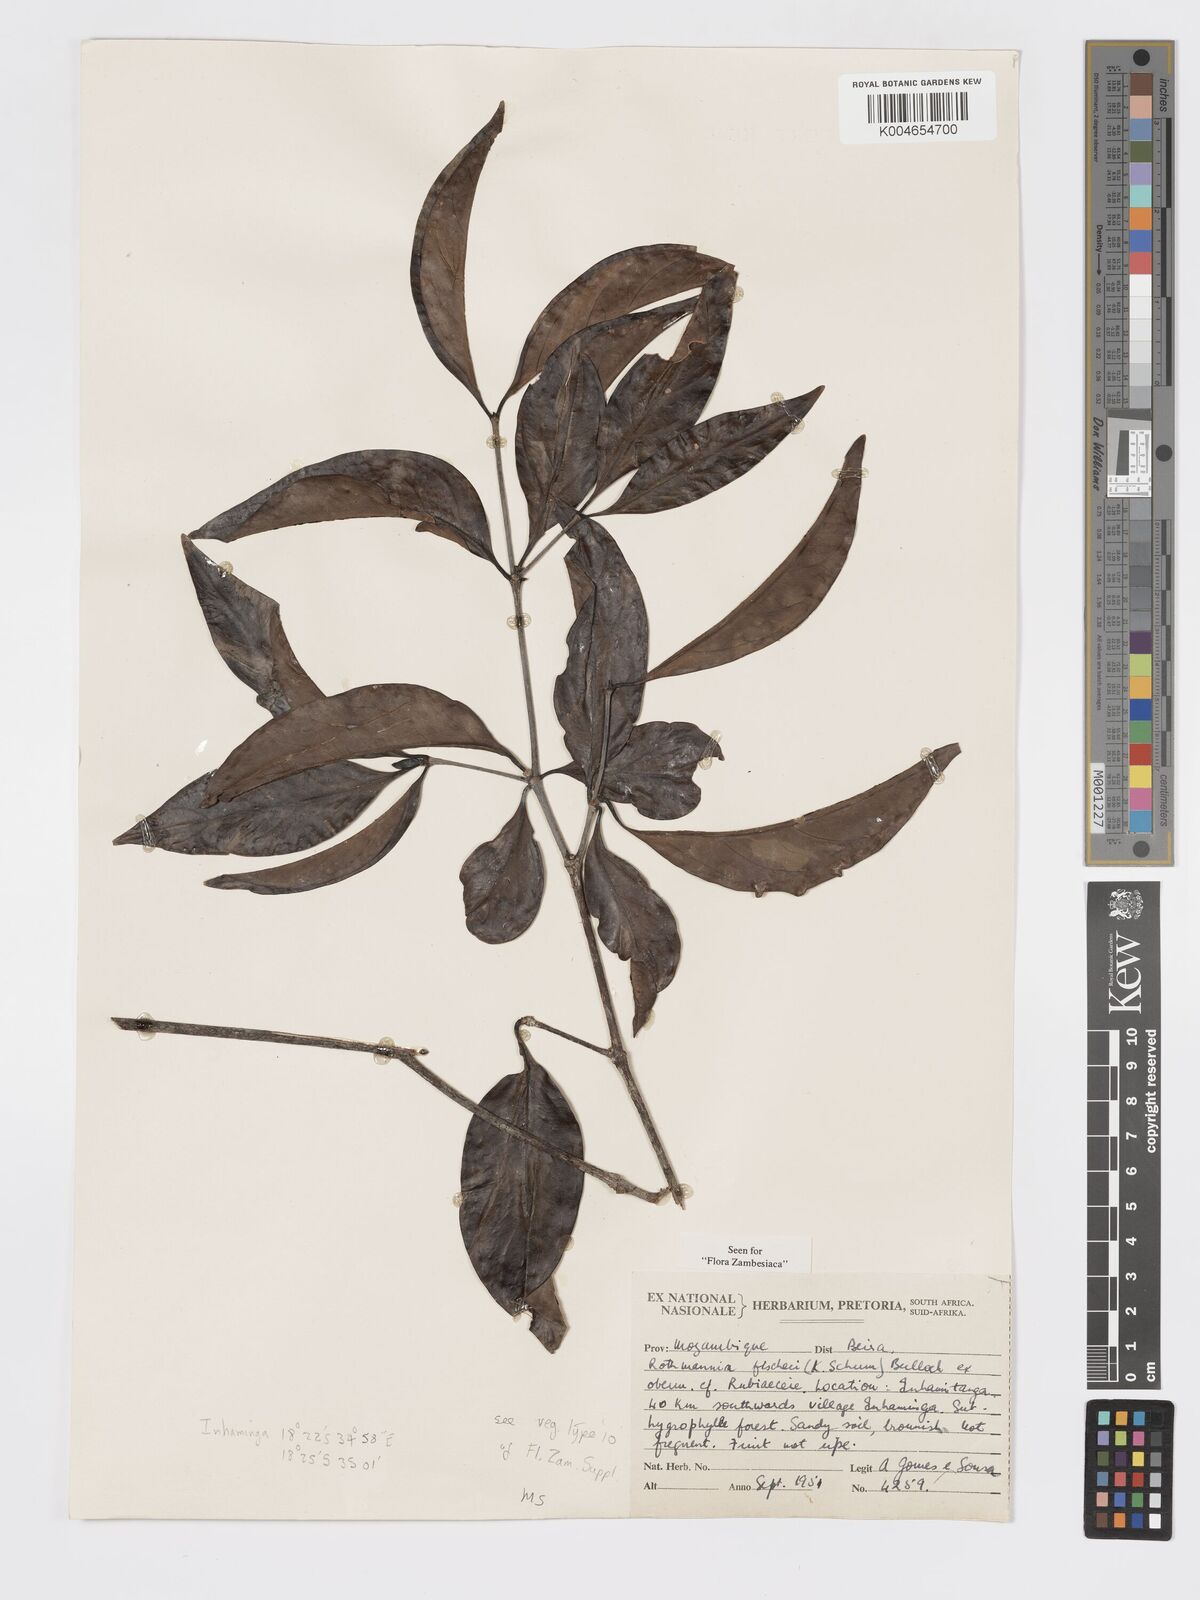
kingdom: Plantae
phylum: Tracheophyta
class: Magnoliopsida
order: Gentianales
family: Rubiaceae
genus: Rothmannia
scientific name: Rothmannia fischeri
